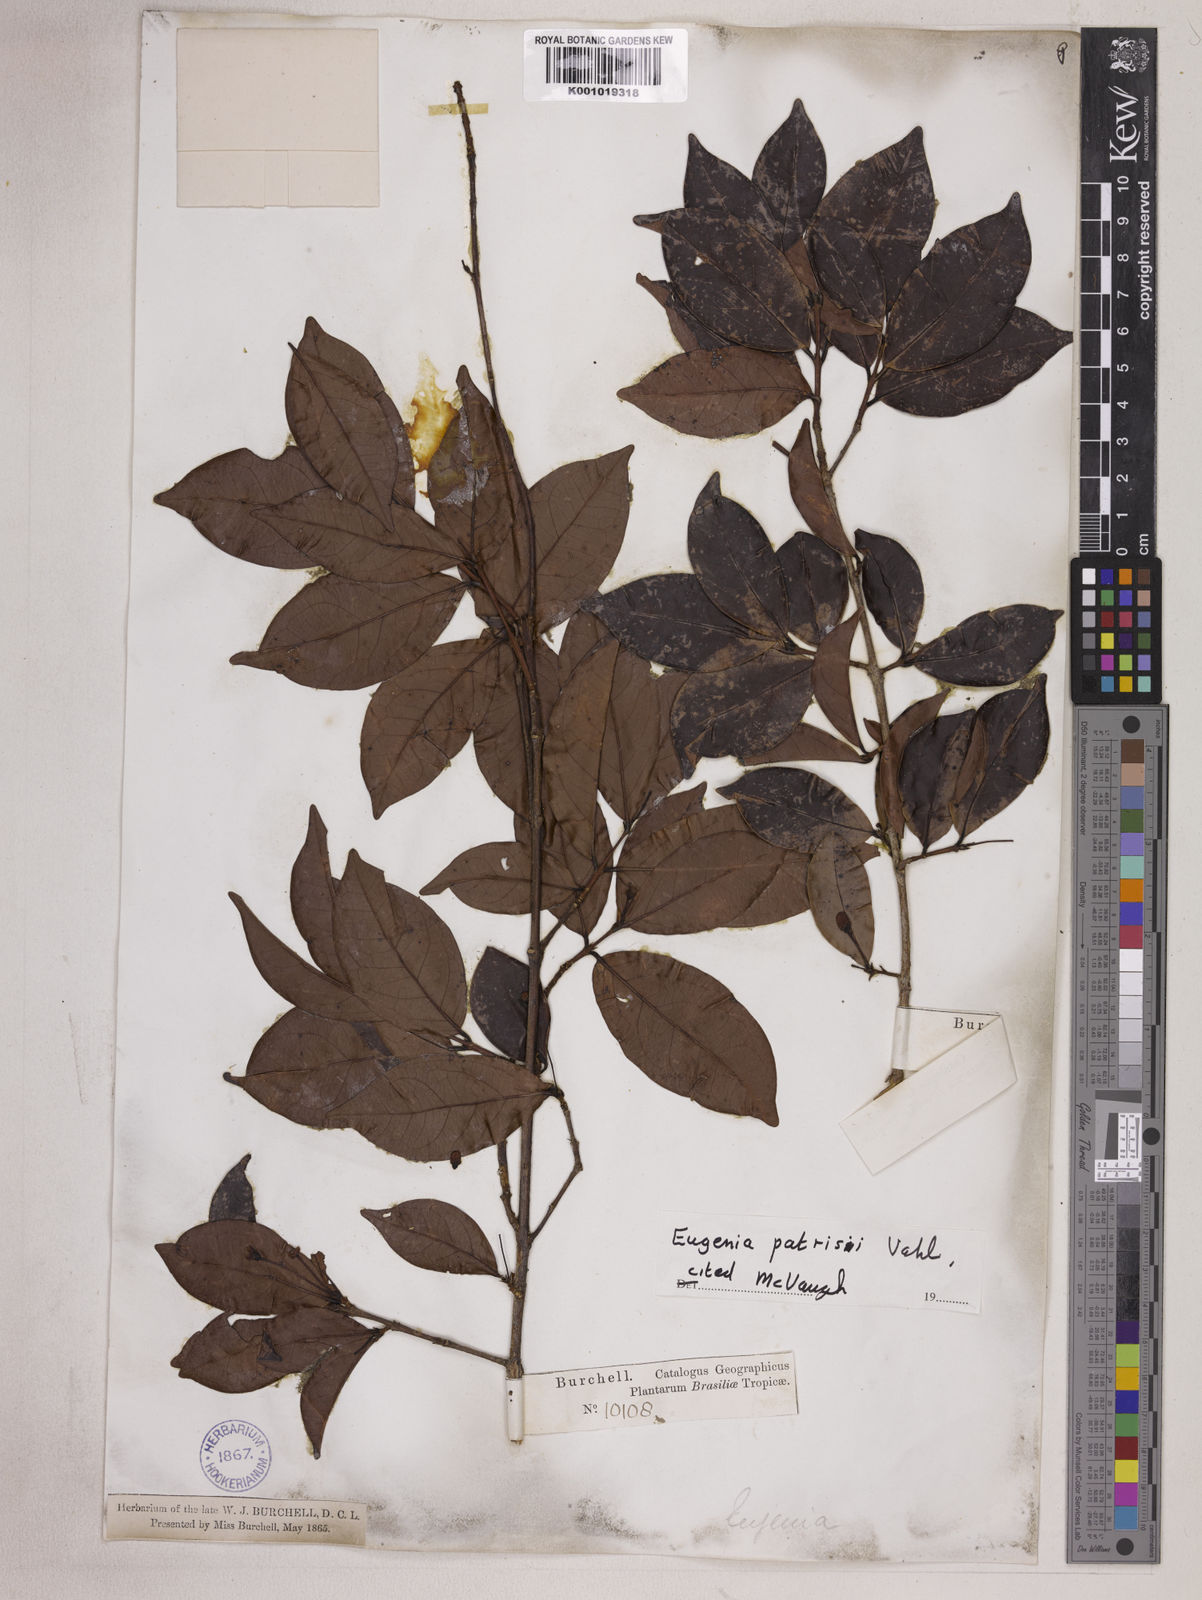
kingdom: Plantae
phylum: Tracheophyta
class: Magnoliopsida
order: Myrtales
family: Myrtaceae
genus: Eugenia
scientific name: Eugenia patrisii
